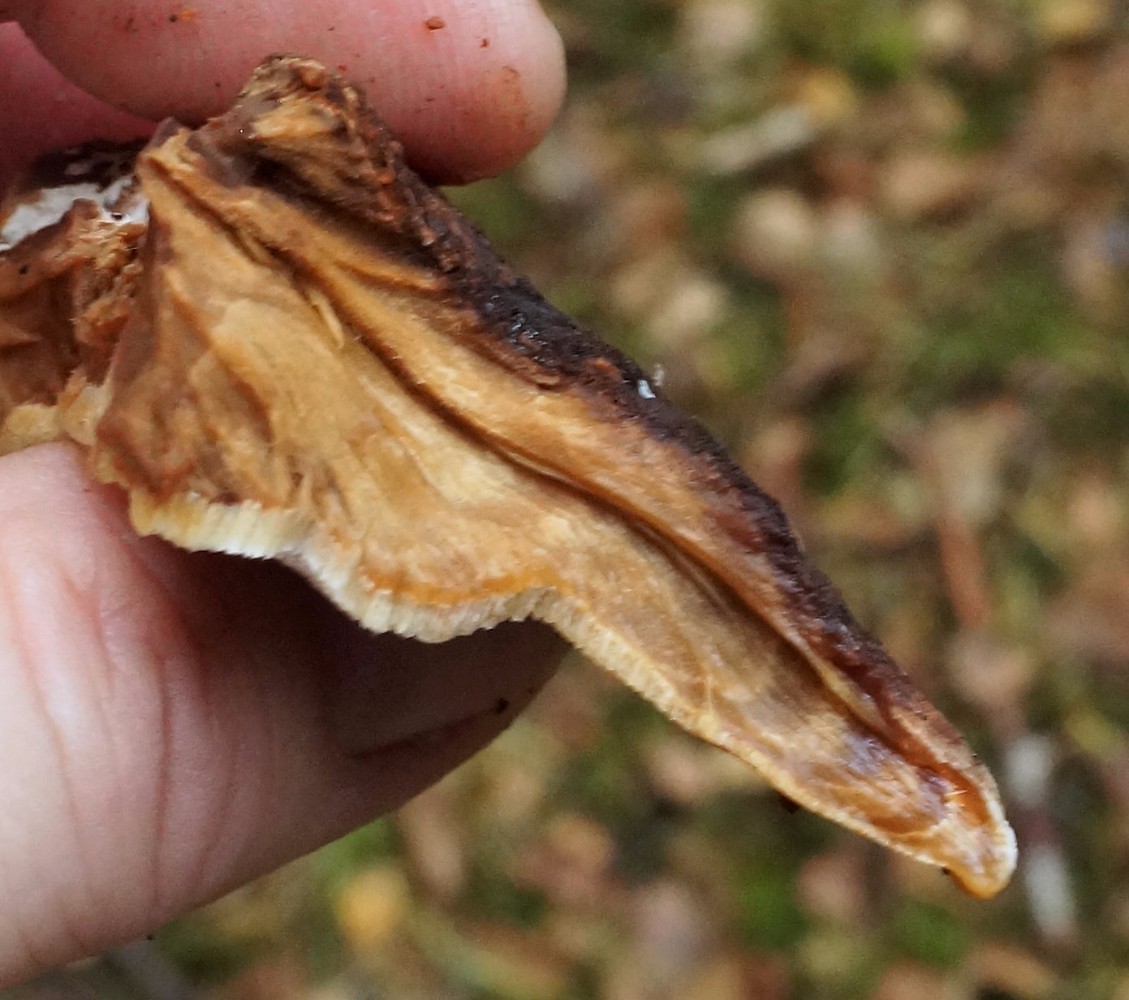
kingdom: Fungi
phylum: Basidiomycota
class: Agaricomycetes
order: Polyporales
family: Phanerochaetaceae
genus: Bjerkandera
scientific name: Bjerkandera adusta
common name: sveden sodporesvamp
